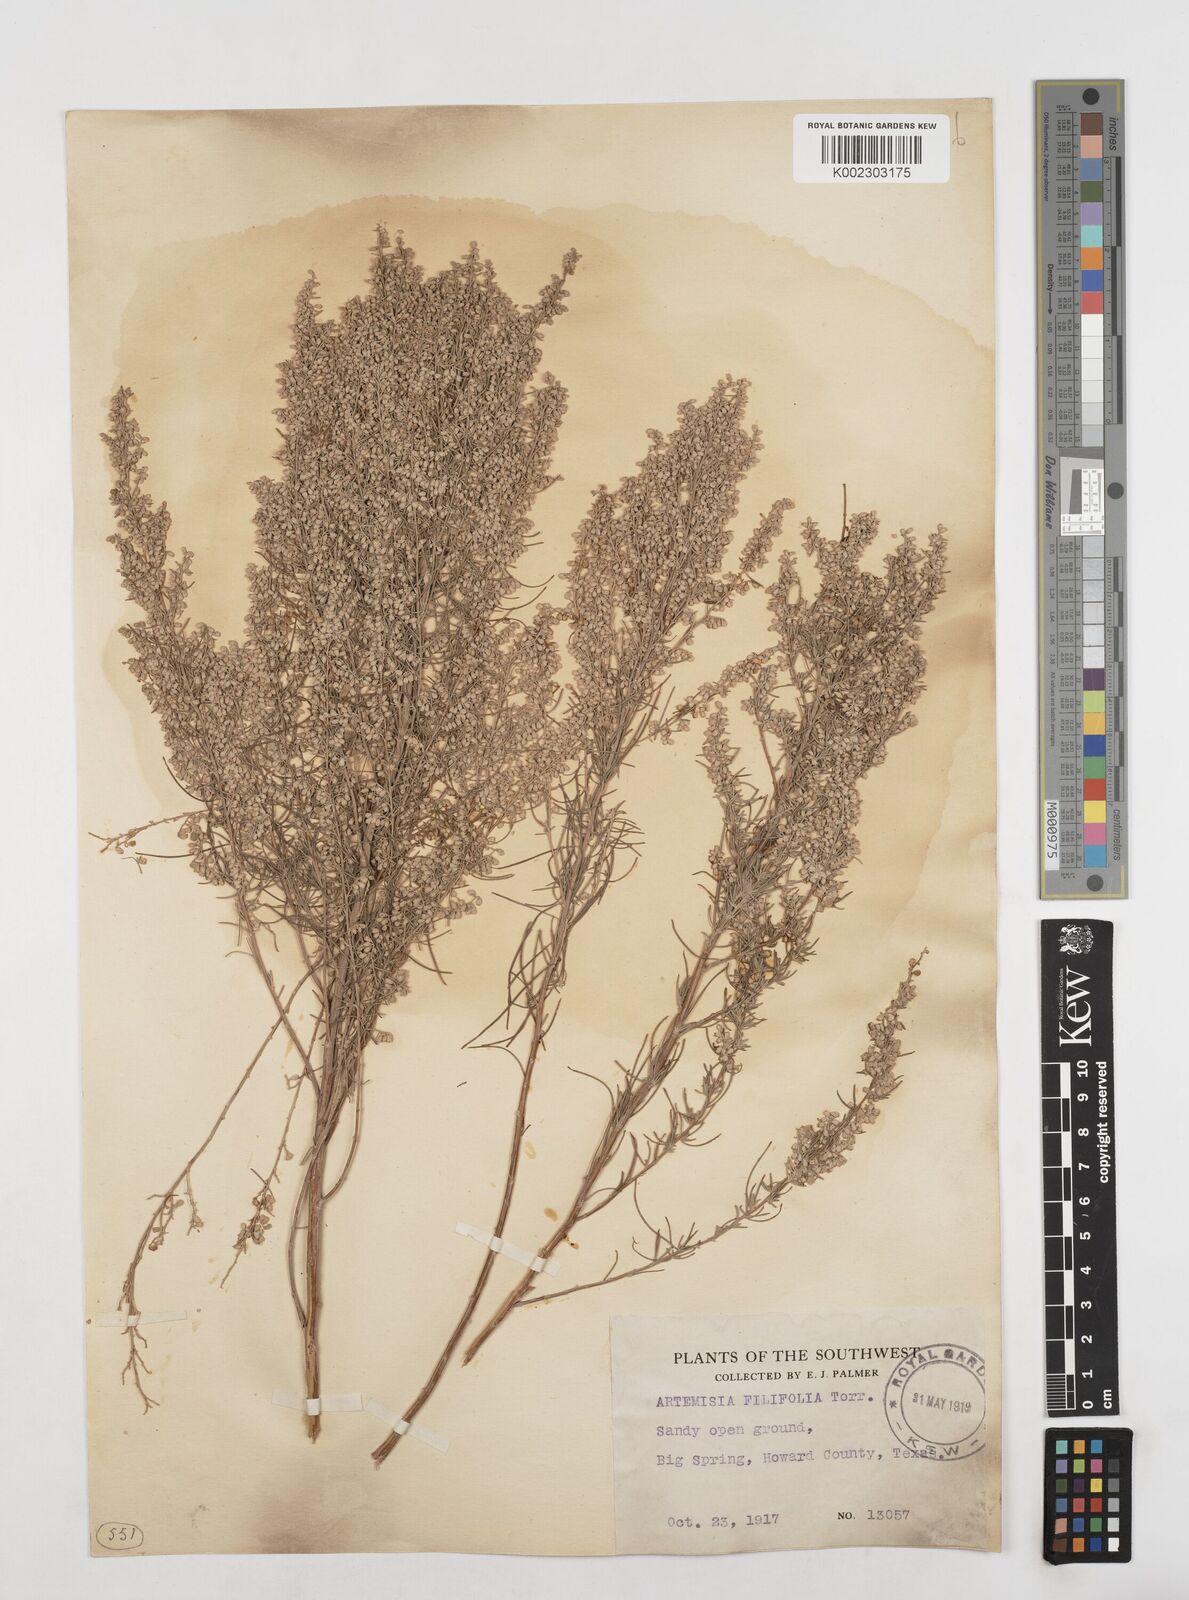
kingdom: Plantae
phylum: Tracheophyta
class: Magnoliopsida
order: Asterales
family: Asteraceae
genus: Artemisia
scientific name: Artemisia filifolia
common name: Sand-sage
